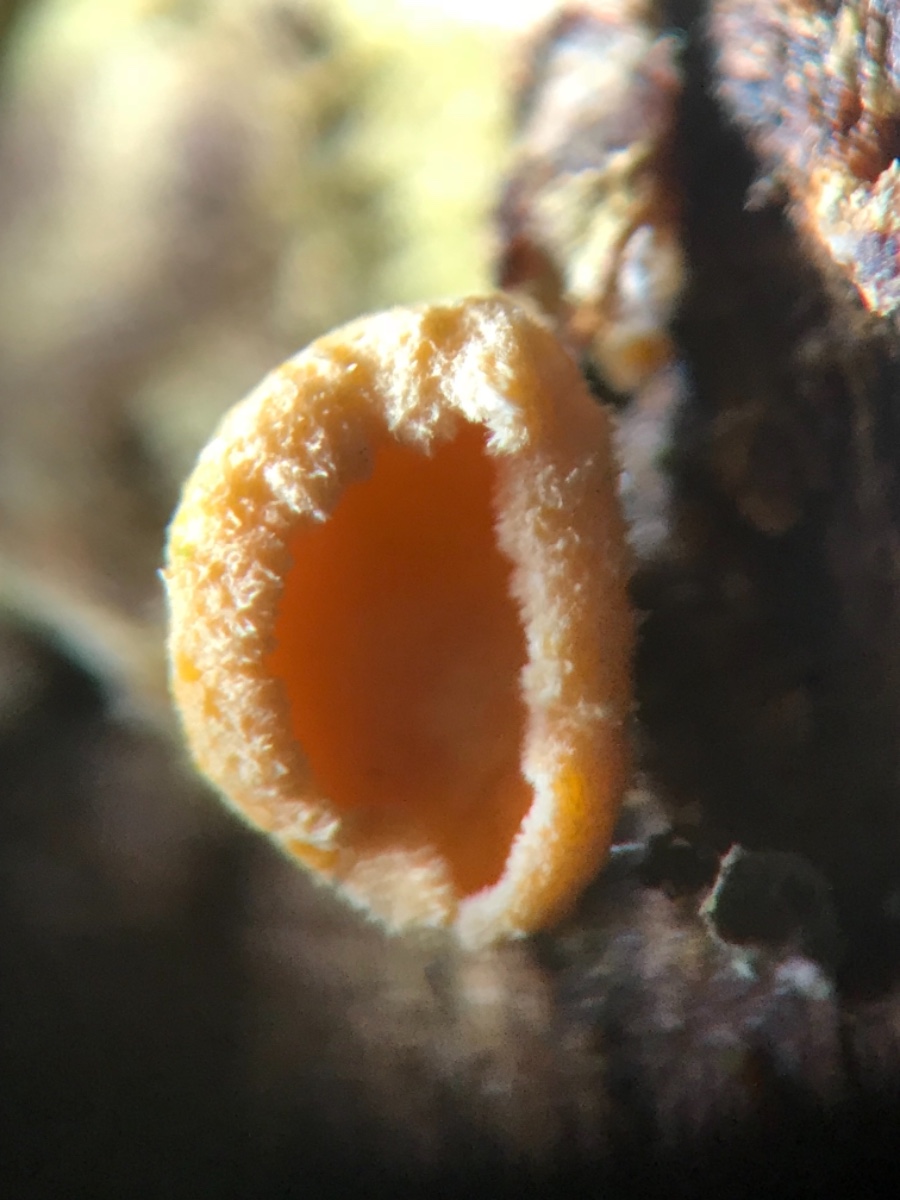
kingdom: Fungi
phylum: Ascomycota
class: Leotiomycetes
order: Helotiales
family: Lachnaceae
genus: Lachnellula
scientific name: Lachnellula subtilissima
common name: gran-frynseskive
